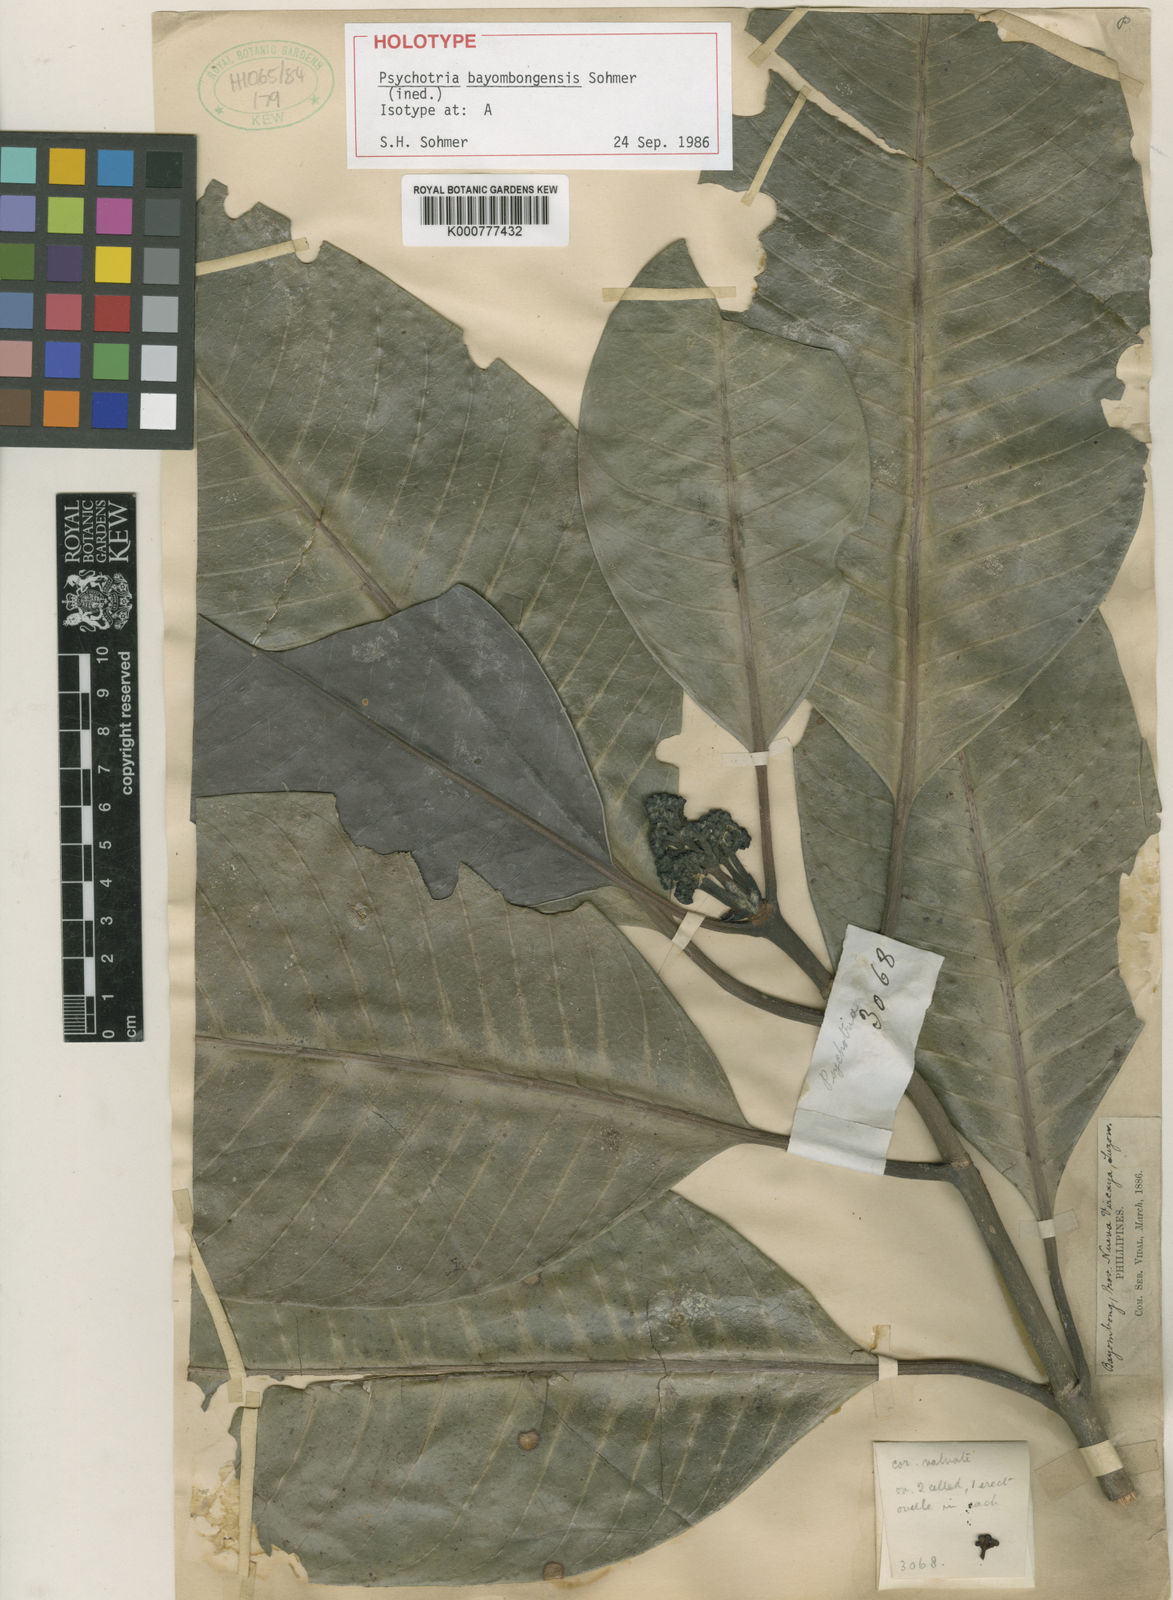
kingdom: Plantae
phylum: Tracheophyta
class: Magnoliopsida
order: Gentianales
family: Rubiaceae
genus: Psychotria
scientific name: Psychotria bayombongensis
